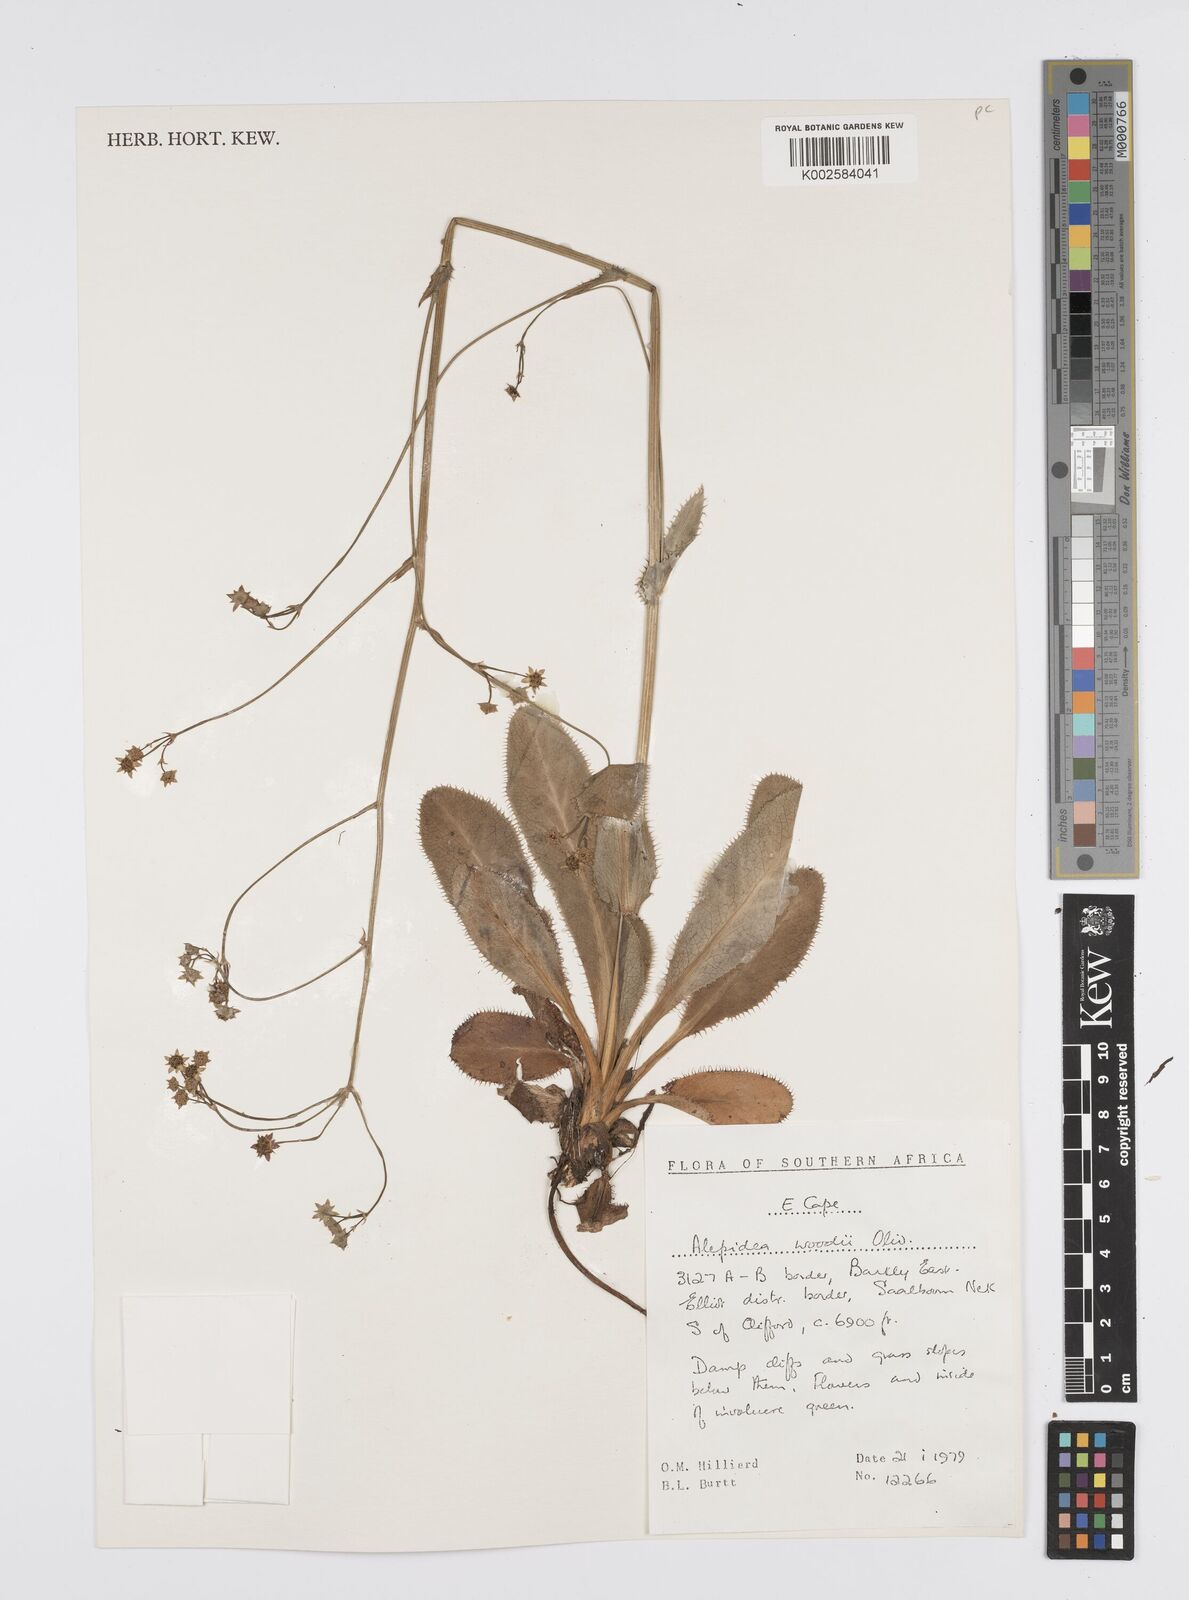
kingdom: Plantae
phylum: Tracheophyta
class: Magnoliopsida
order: Apiales
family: Apiaceae
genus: Alepidea
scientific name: Alepidea woodii
